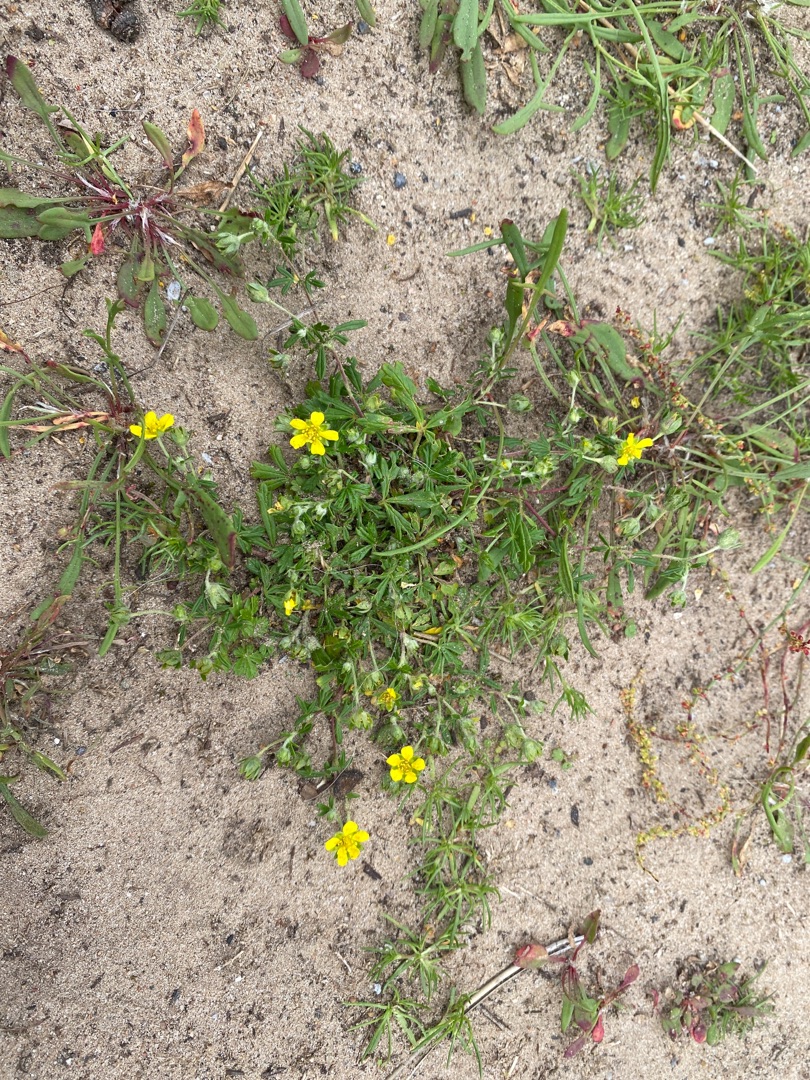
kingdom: Plantae
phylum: Tracheophyta
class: Magnoliopsida
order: Rosales
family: Rosaceae
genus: Potentilla
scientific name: Potentilla argentea
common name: Sølv-potentil
